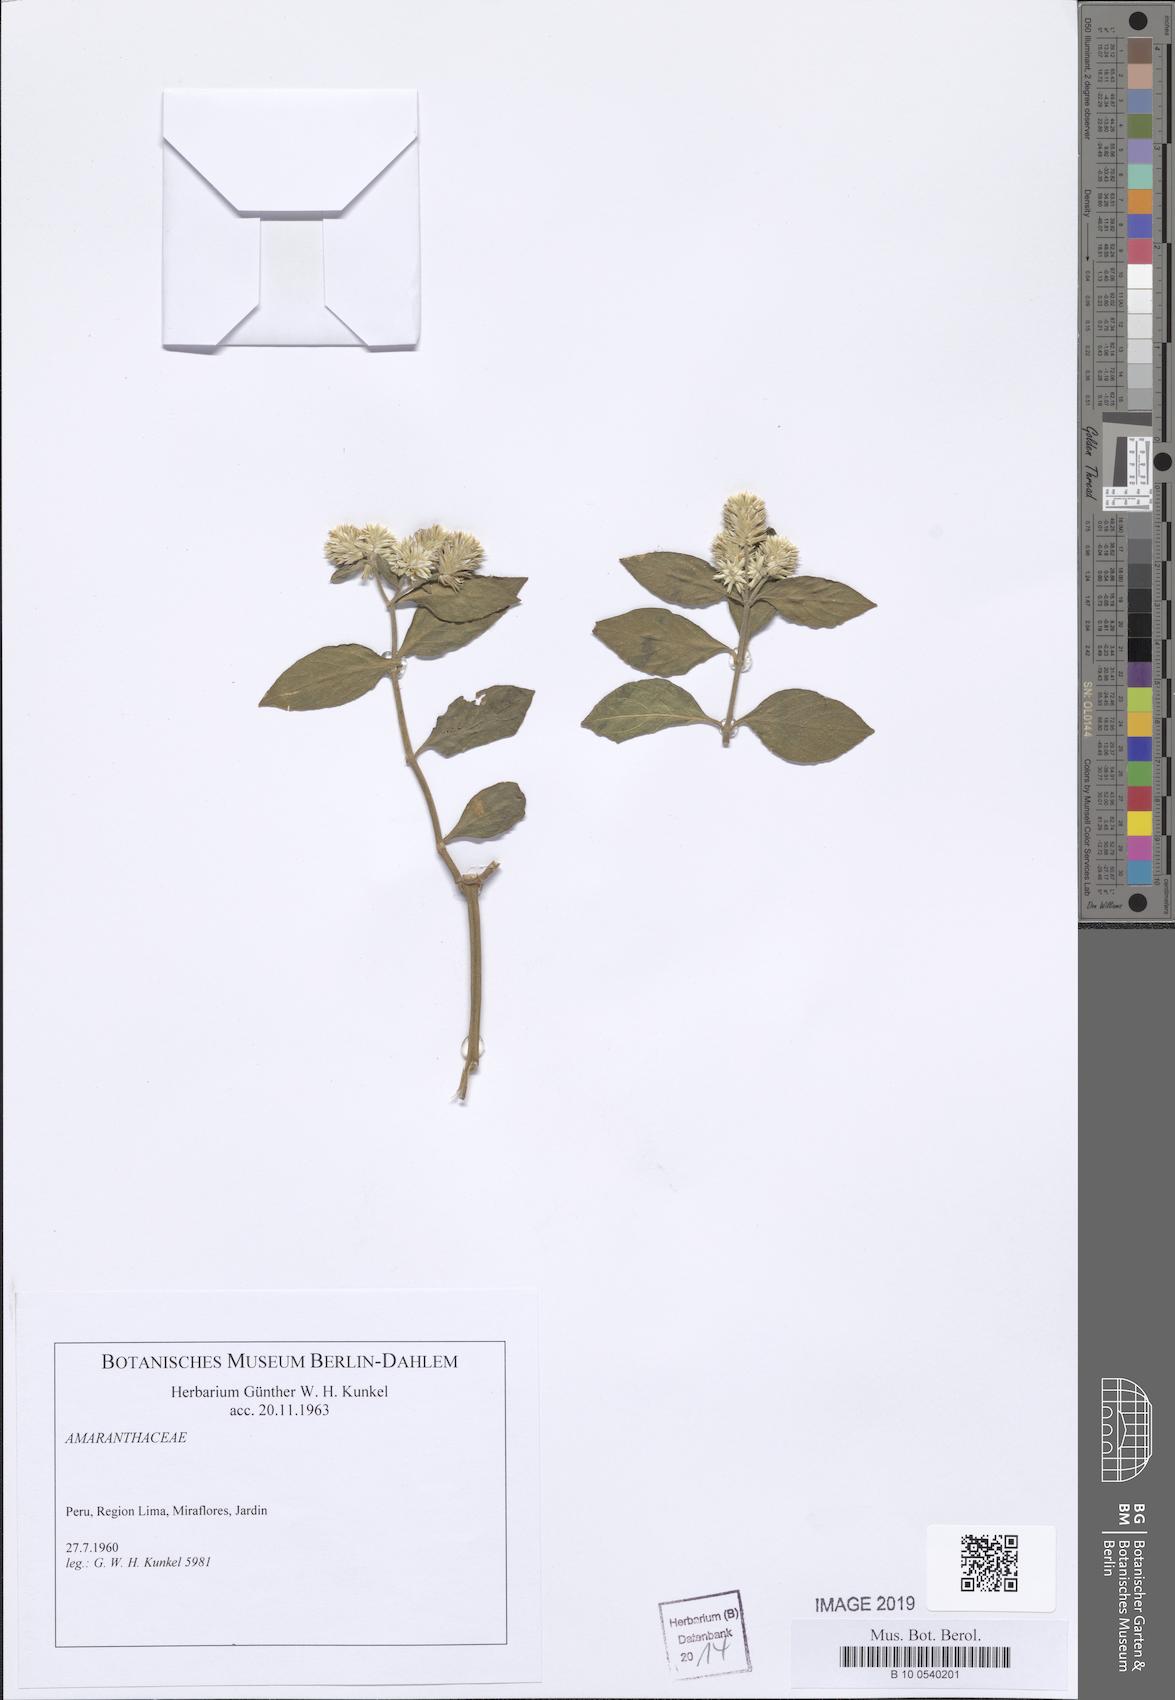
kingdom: Plantae
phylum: Tracheophyta
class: Magnoliopsida
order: Caryophyllales
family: Amaranthaceae
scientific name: Amaranthaceae
